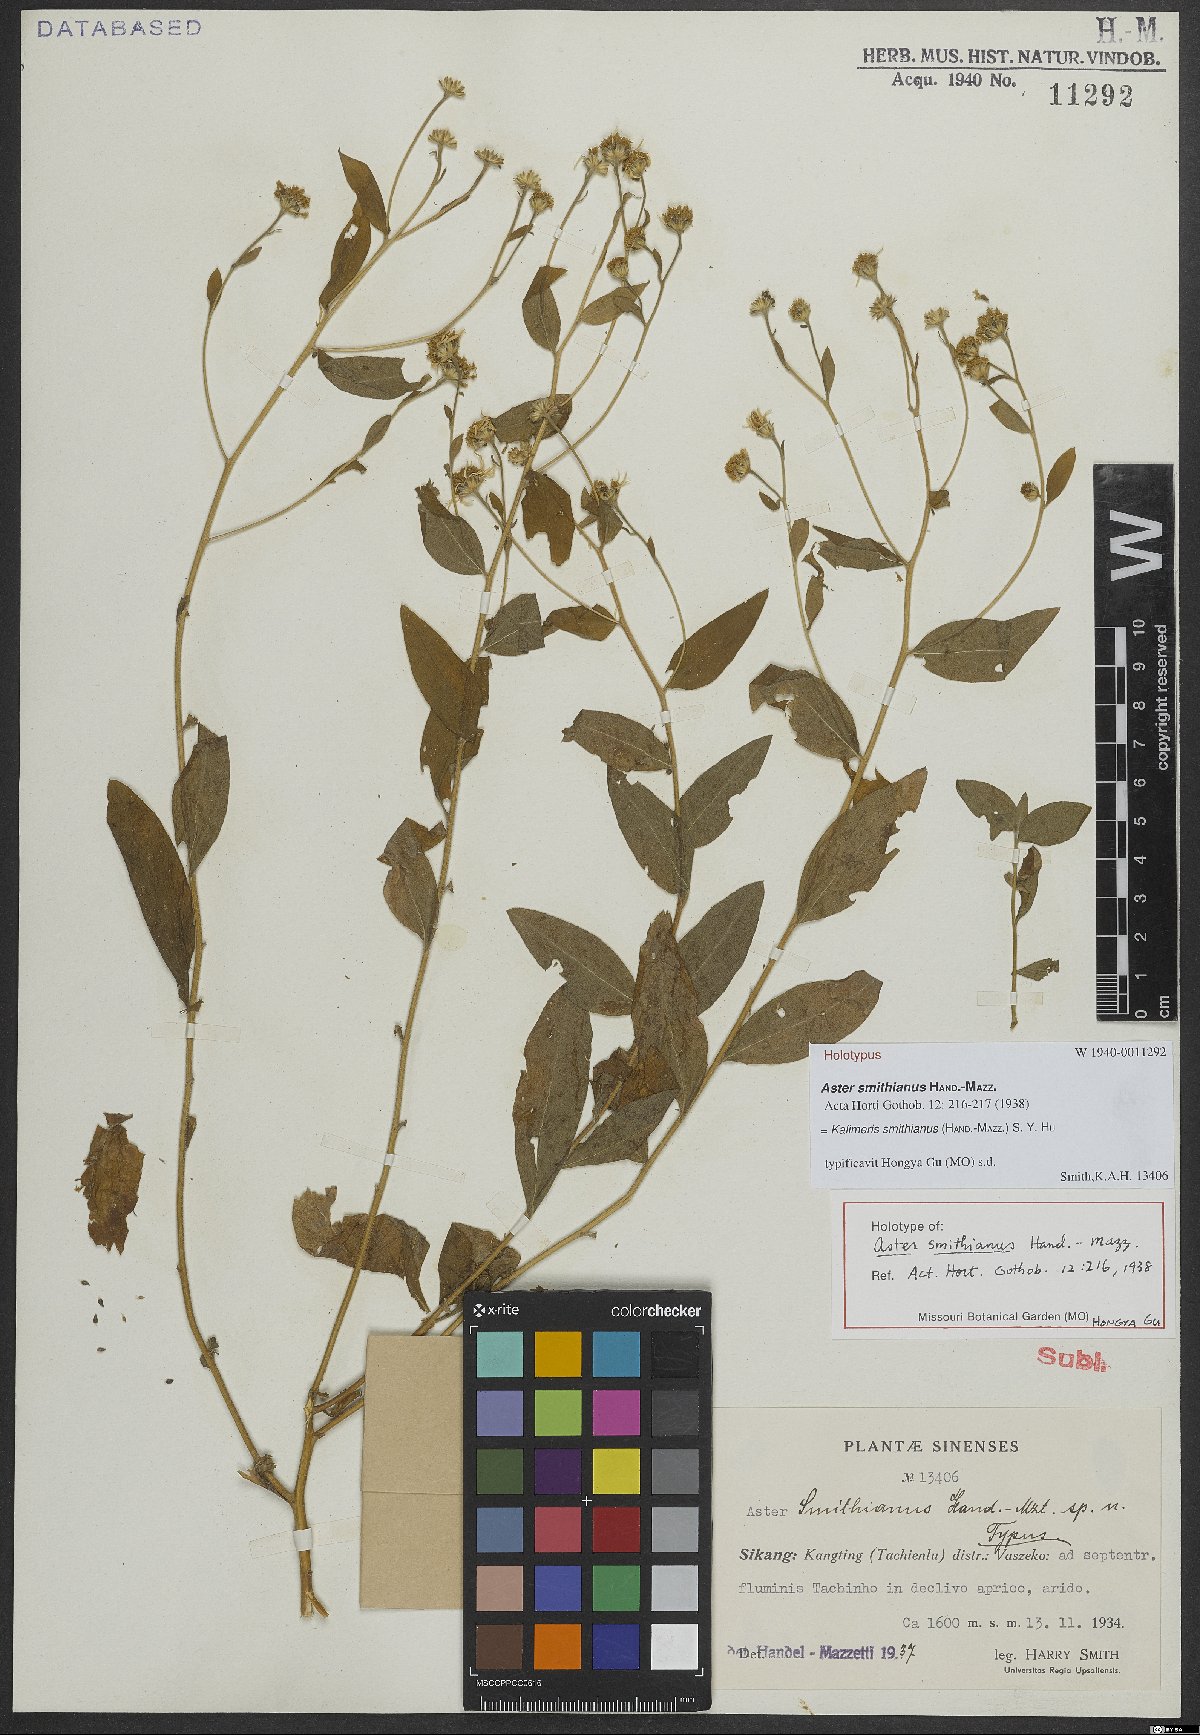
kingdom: Plantae
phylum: Tracheophyta
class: Magnoliopsida
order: Asterales
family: Asteraceae
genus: Aster
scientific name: Aster smithianus
